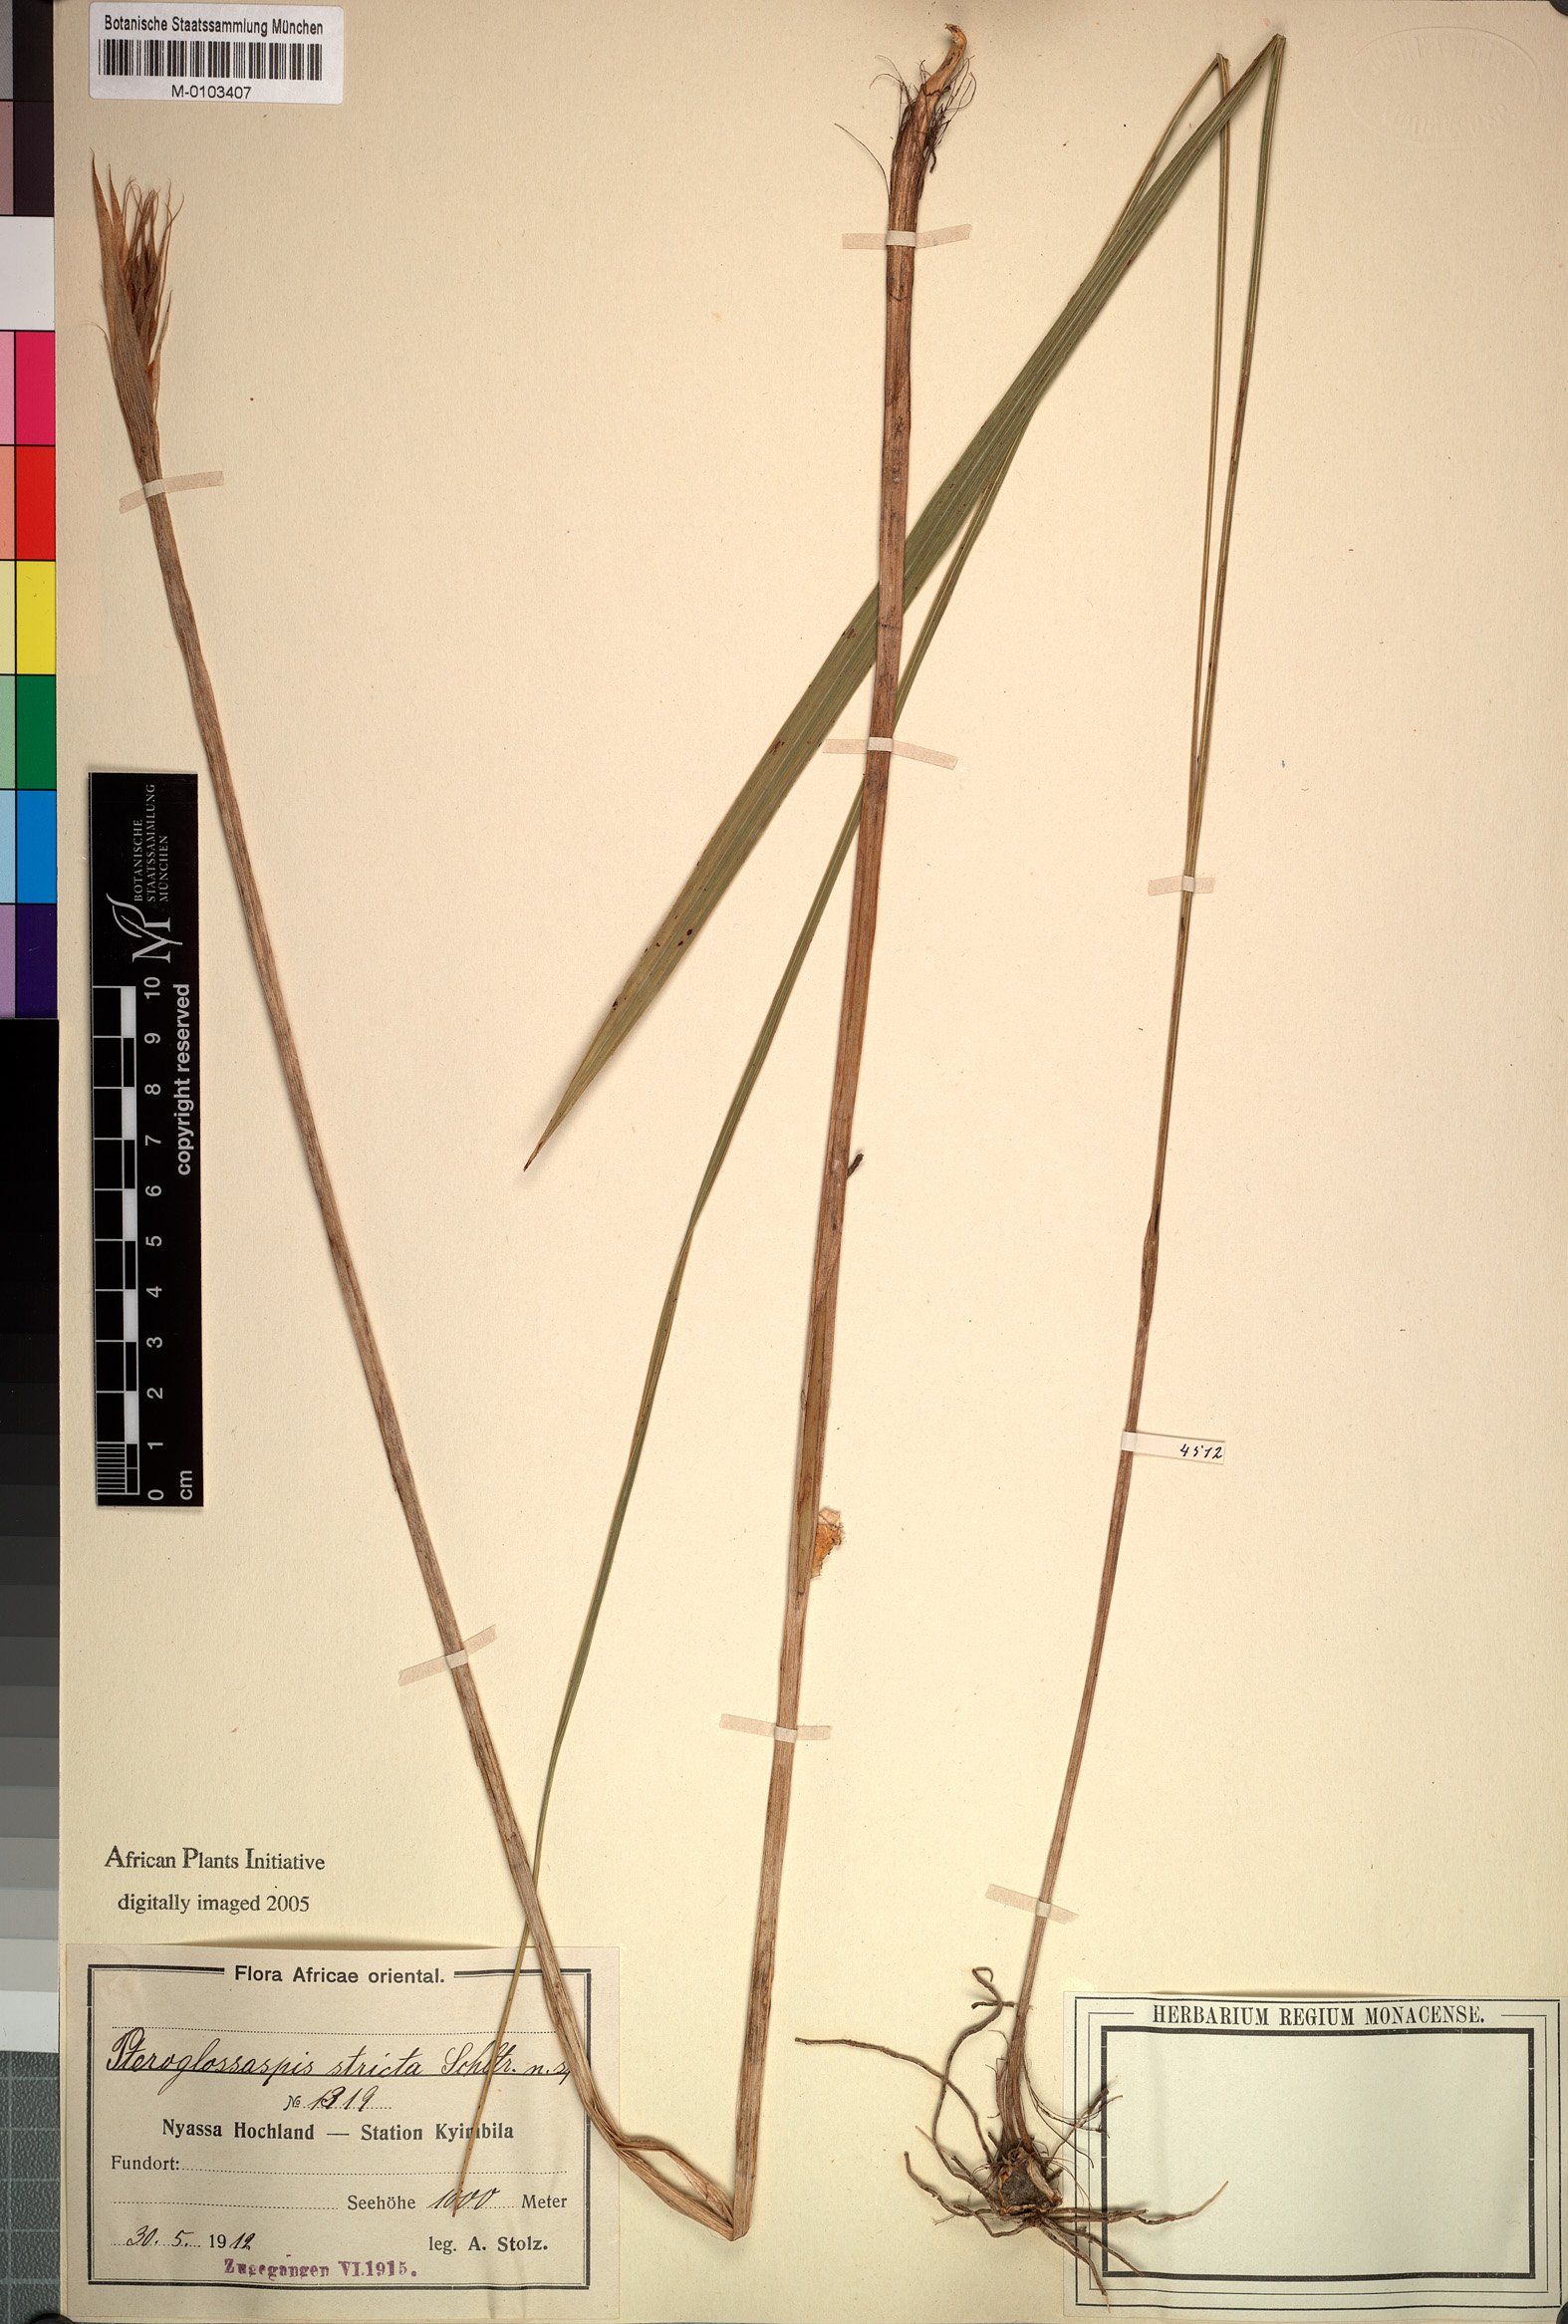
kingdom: Plantae
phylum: Tracheophyta
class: Liliopsida
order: Asparagales
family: Orchidaceae
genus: Eulophia
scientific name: Eulophia ruwenzoriensis
